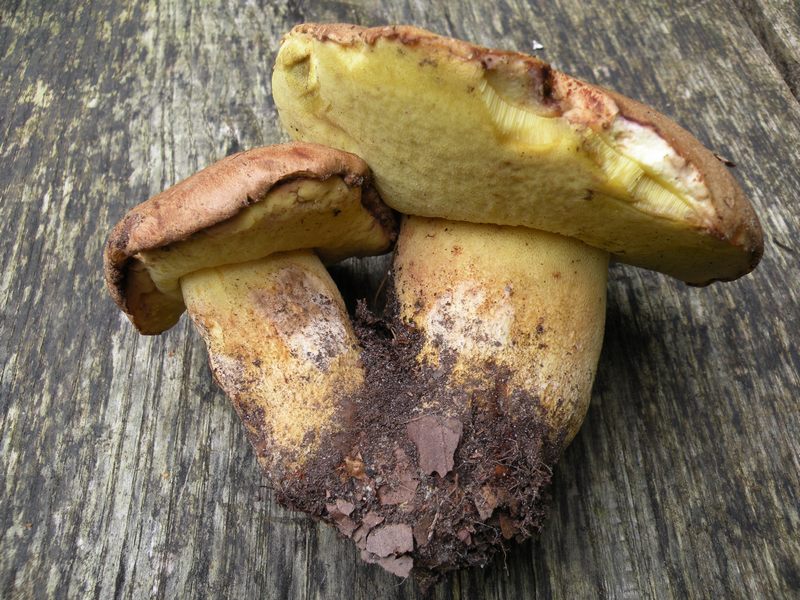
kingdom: Fungi
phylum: Basidiomycota
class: Agaricomycetes
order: Boletales
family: Boletaceae
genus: Butyriboletus
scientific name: Butyriboletus appendiculatus
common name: tenstokket rørhat
